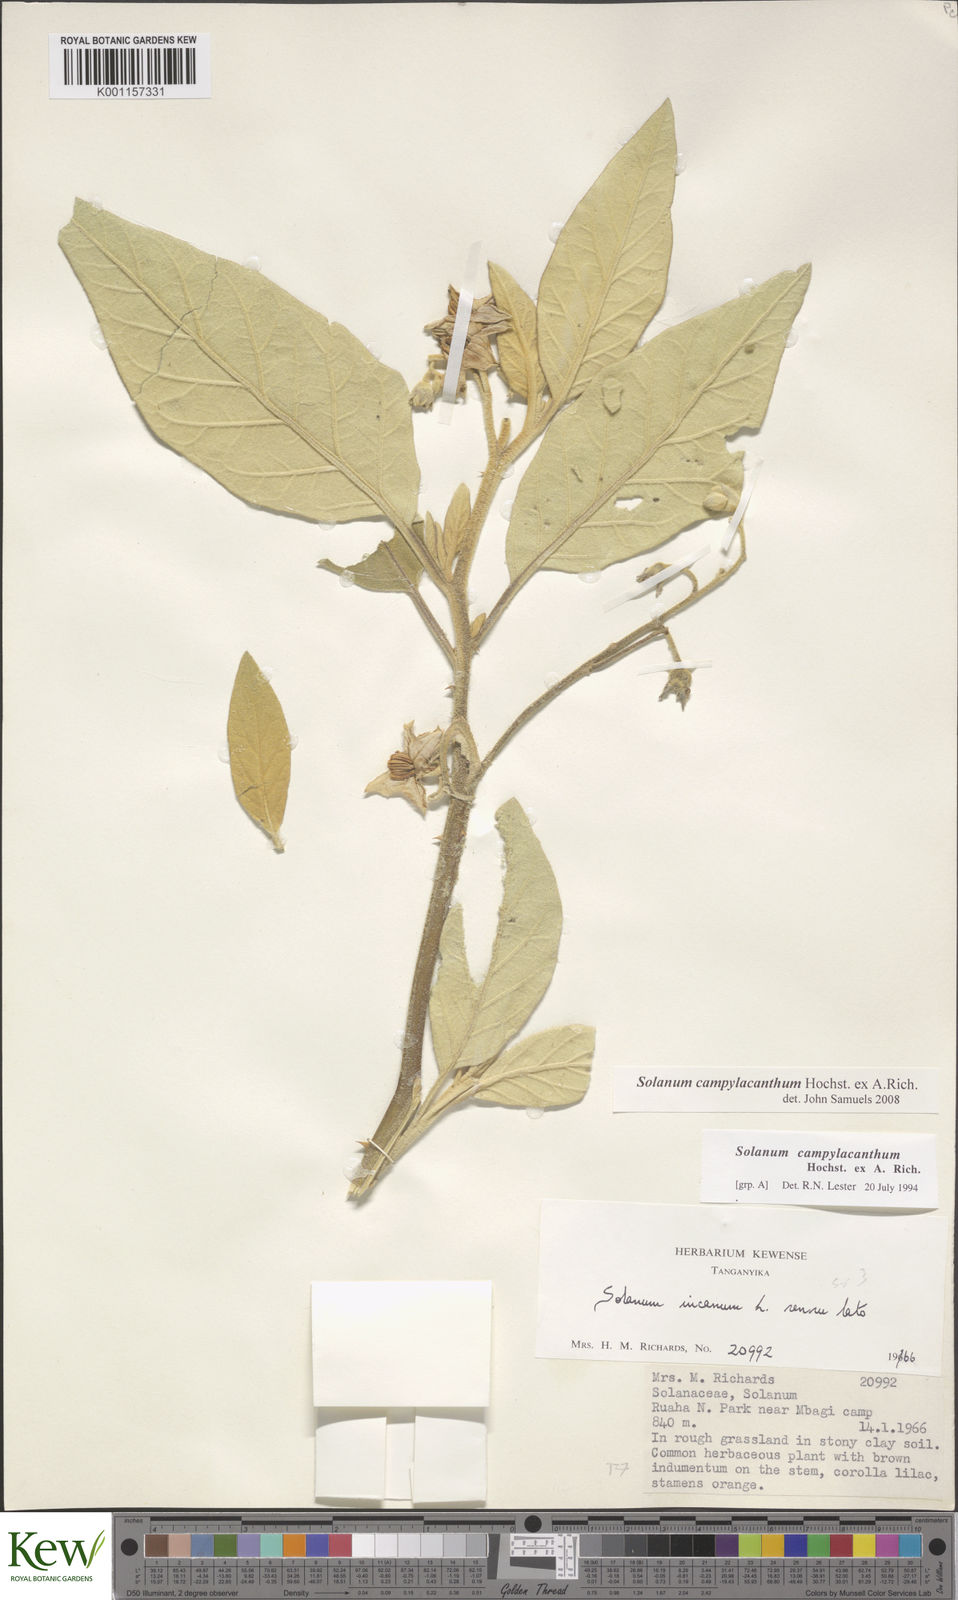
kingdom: Plantae
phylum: Tracheophyta
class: Magnoliopsida
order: Solanales
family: Solanaceae
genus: Solanum
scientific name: Solanum campylacanthum
